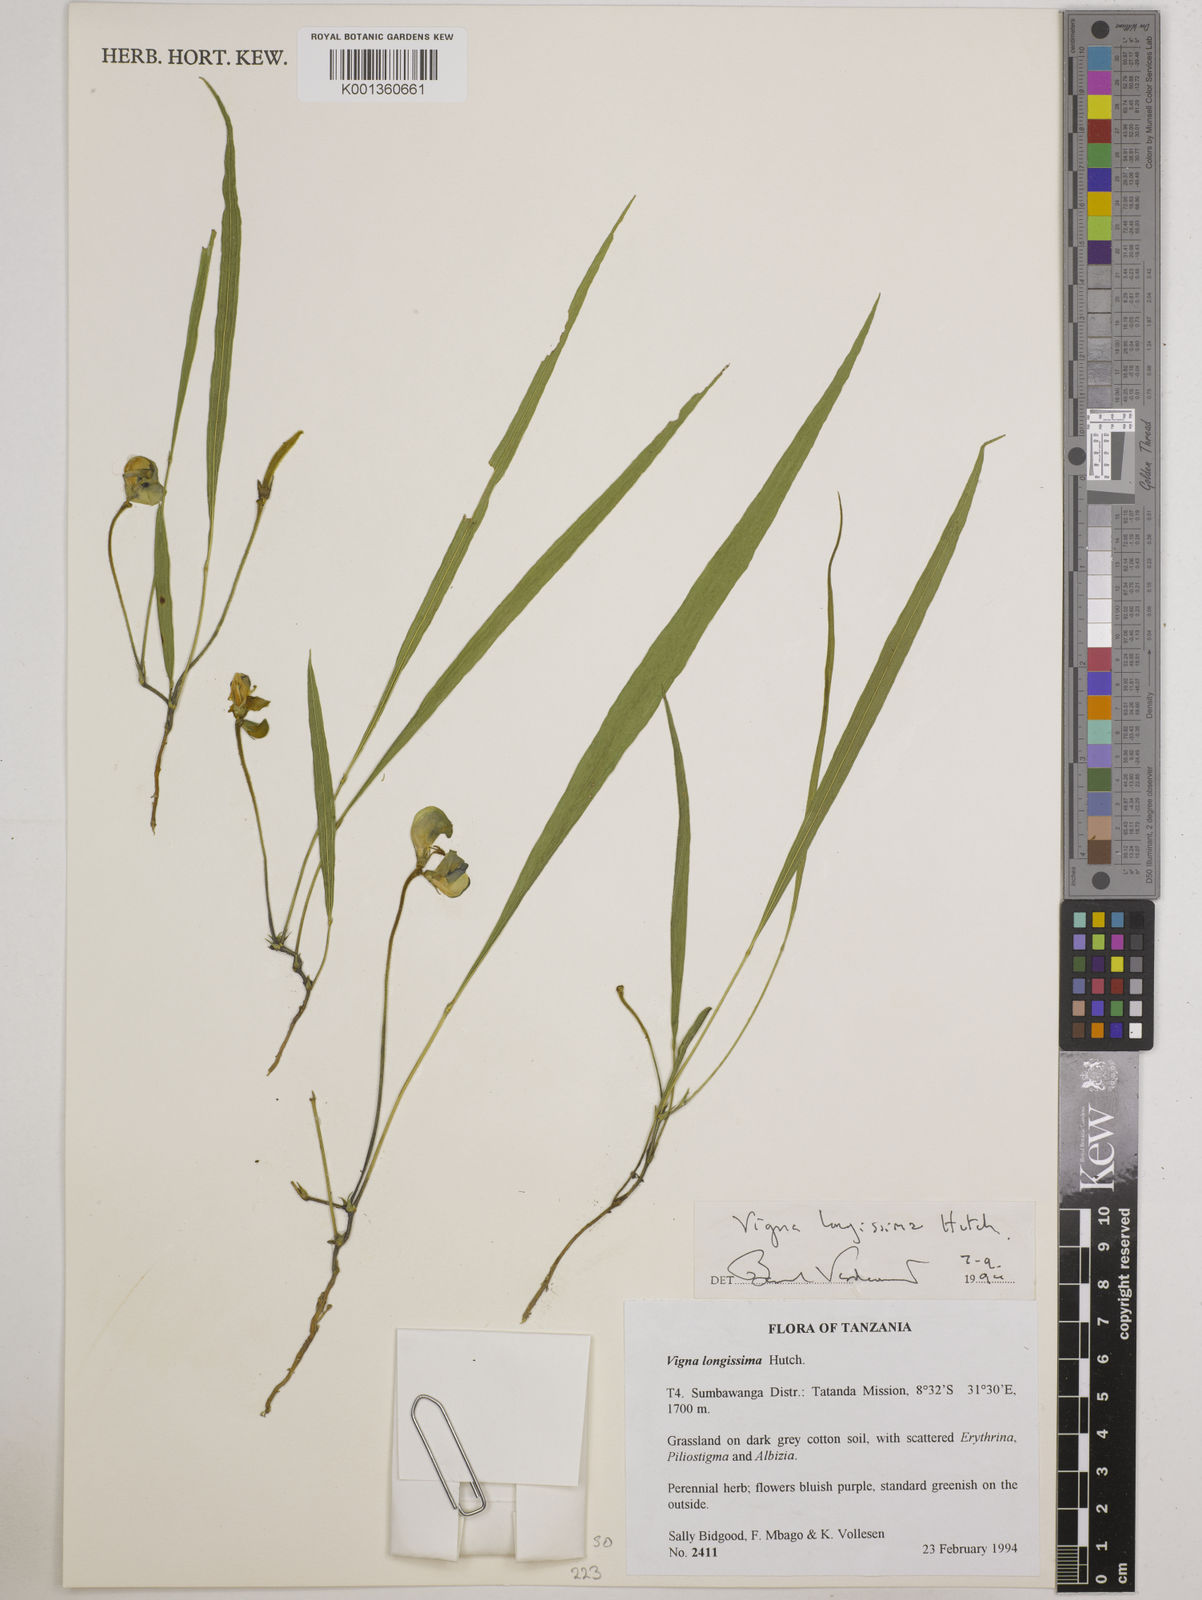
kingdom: Plantae
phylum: Tracheophyta
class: Magnoliopsida
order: Fabales
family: Fabaceae
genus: Vigna
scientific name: Vigna longissima
